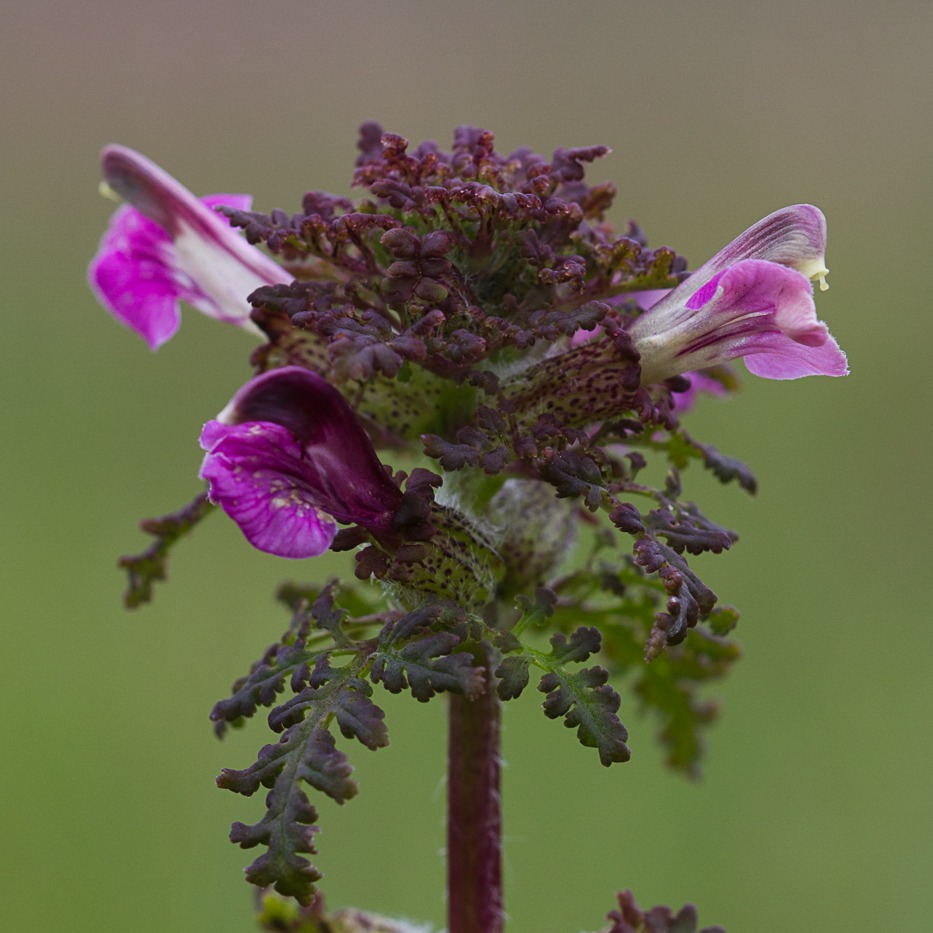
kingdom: Plantae
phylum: Tracheophyta
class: Magnoliopsida
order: Lamiales
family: Orobanchaceae
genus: Pedicularis
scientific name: Pedicularis palustris
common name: Eng-troldurt
